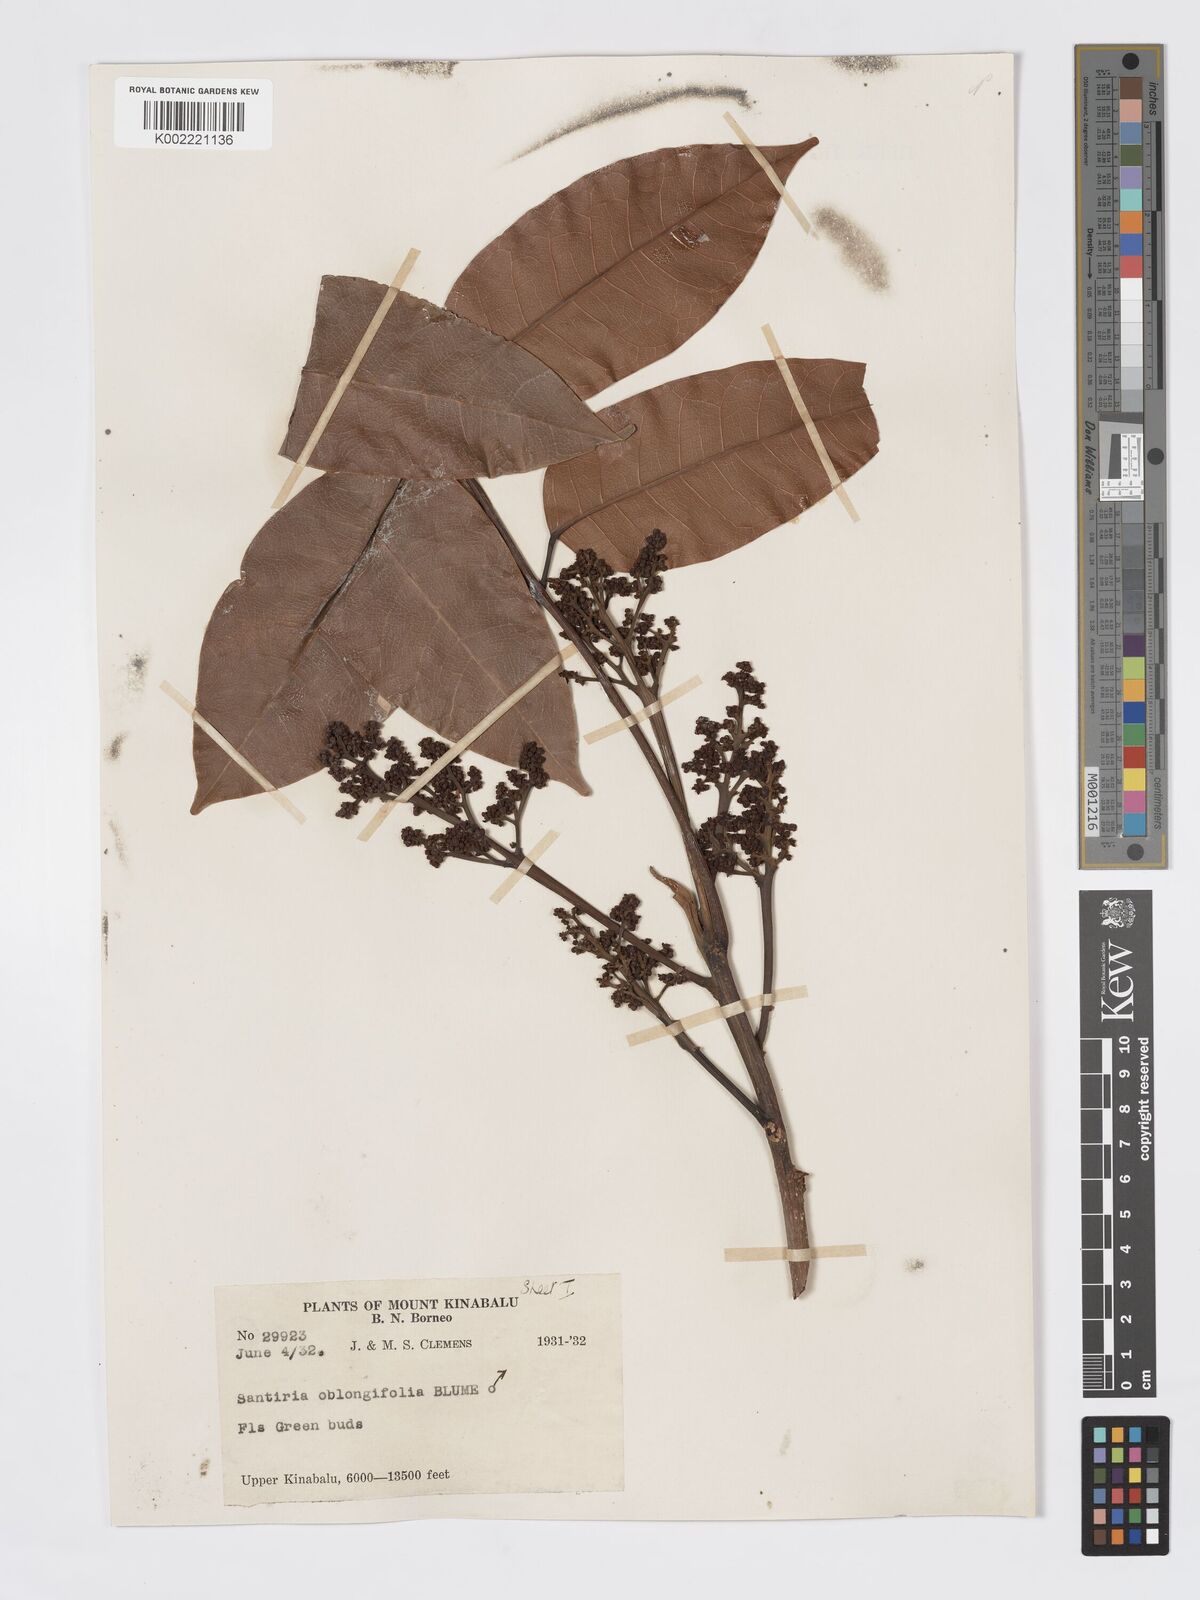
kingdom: Plantae
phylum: Tracheophyta
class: Magnoliopsida
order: Sapindales
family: Burseraceae
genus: Santiria
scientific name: Santiria conferta
